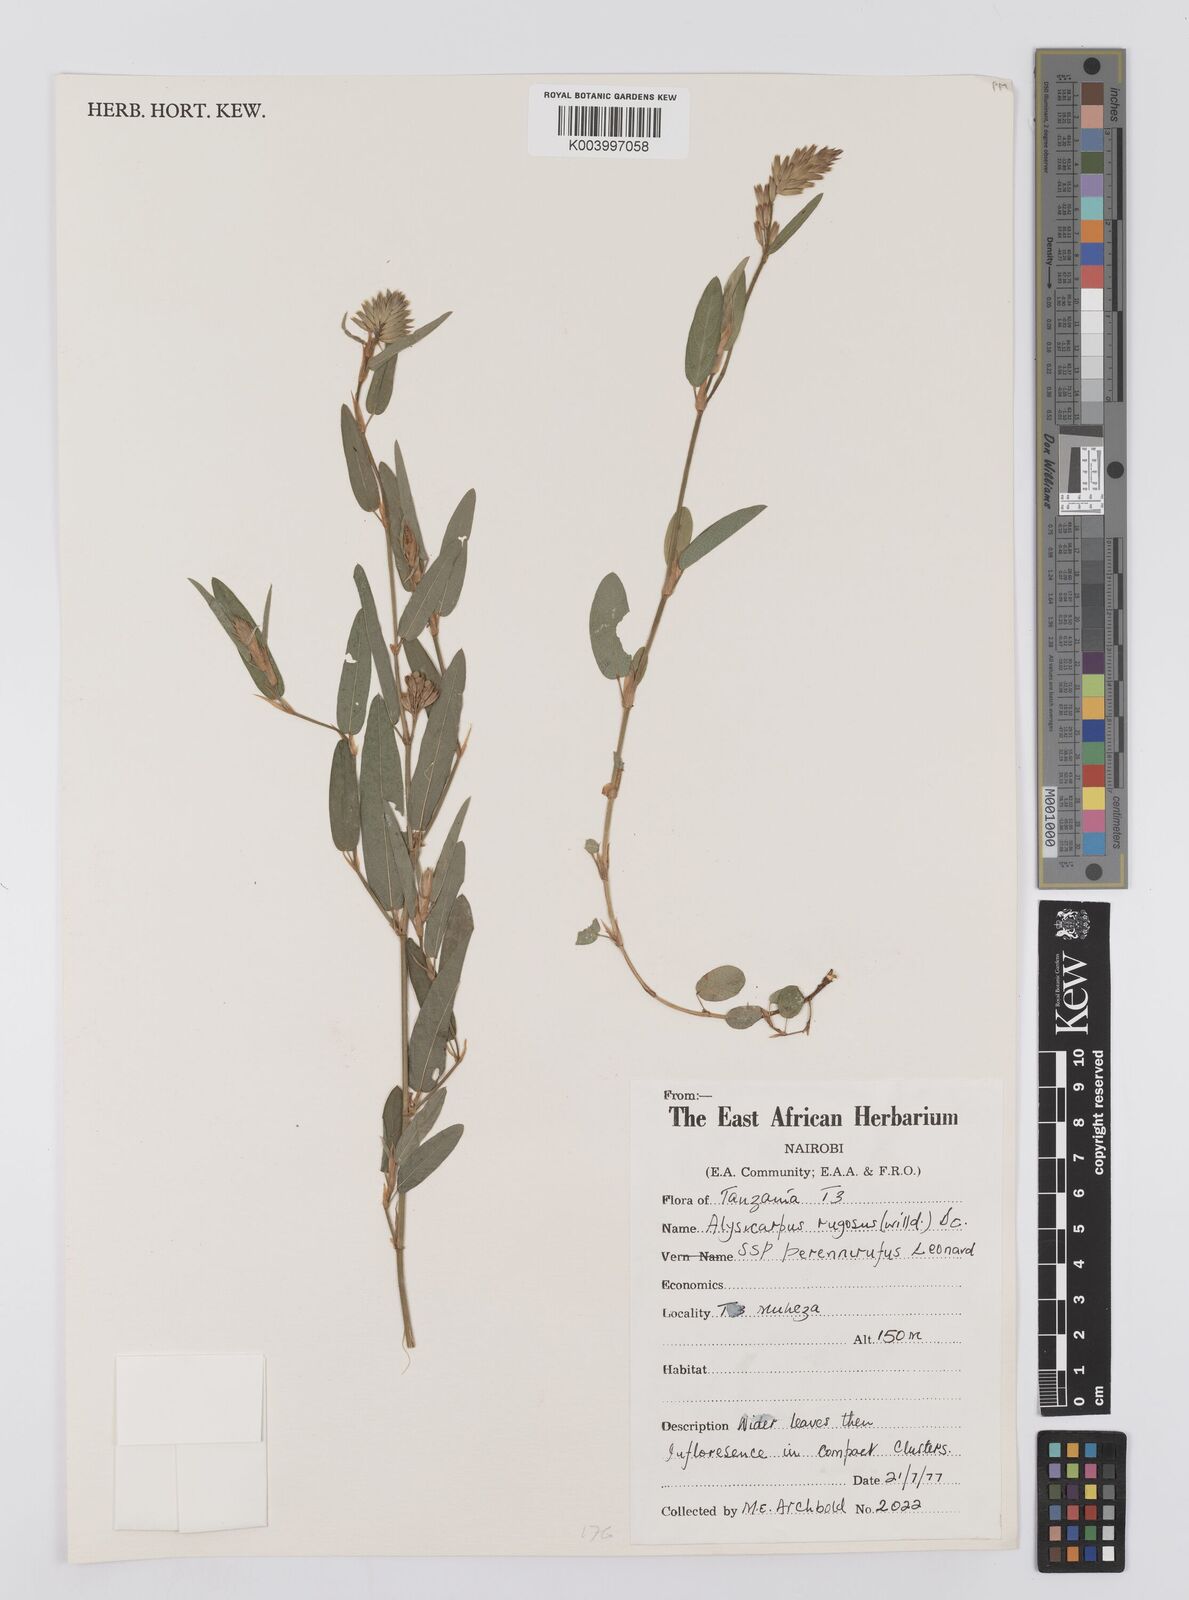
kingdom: Plantae
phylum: Tracheophyta
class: Magnoliopsida
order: Fabales
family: Fabaceae
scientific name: Fabaceae
